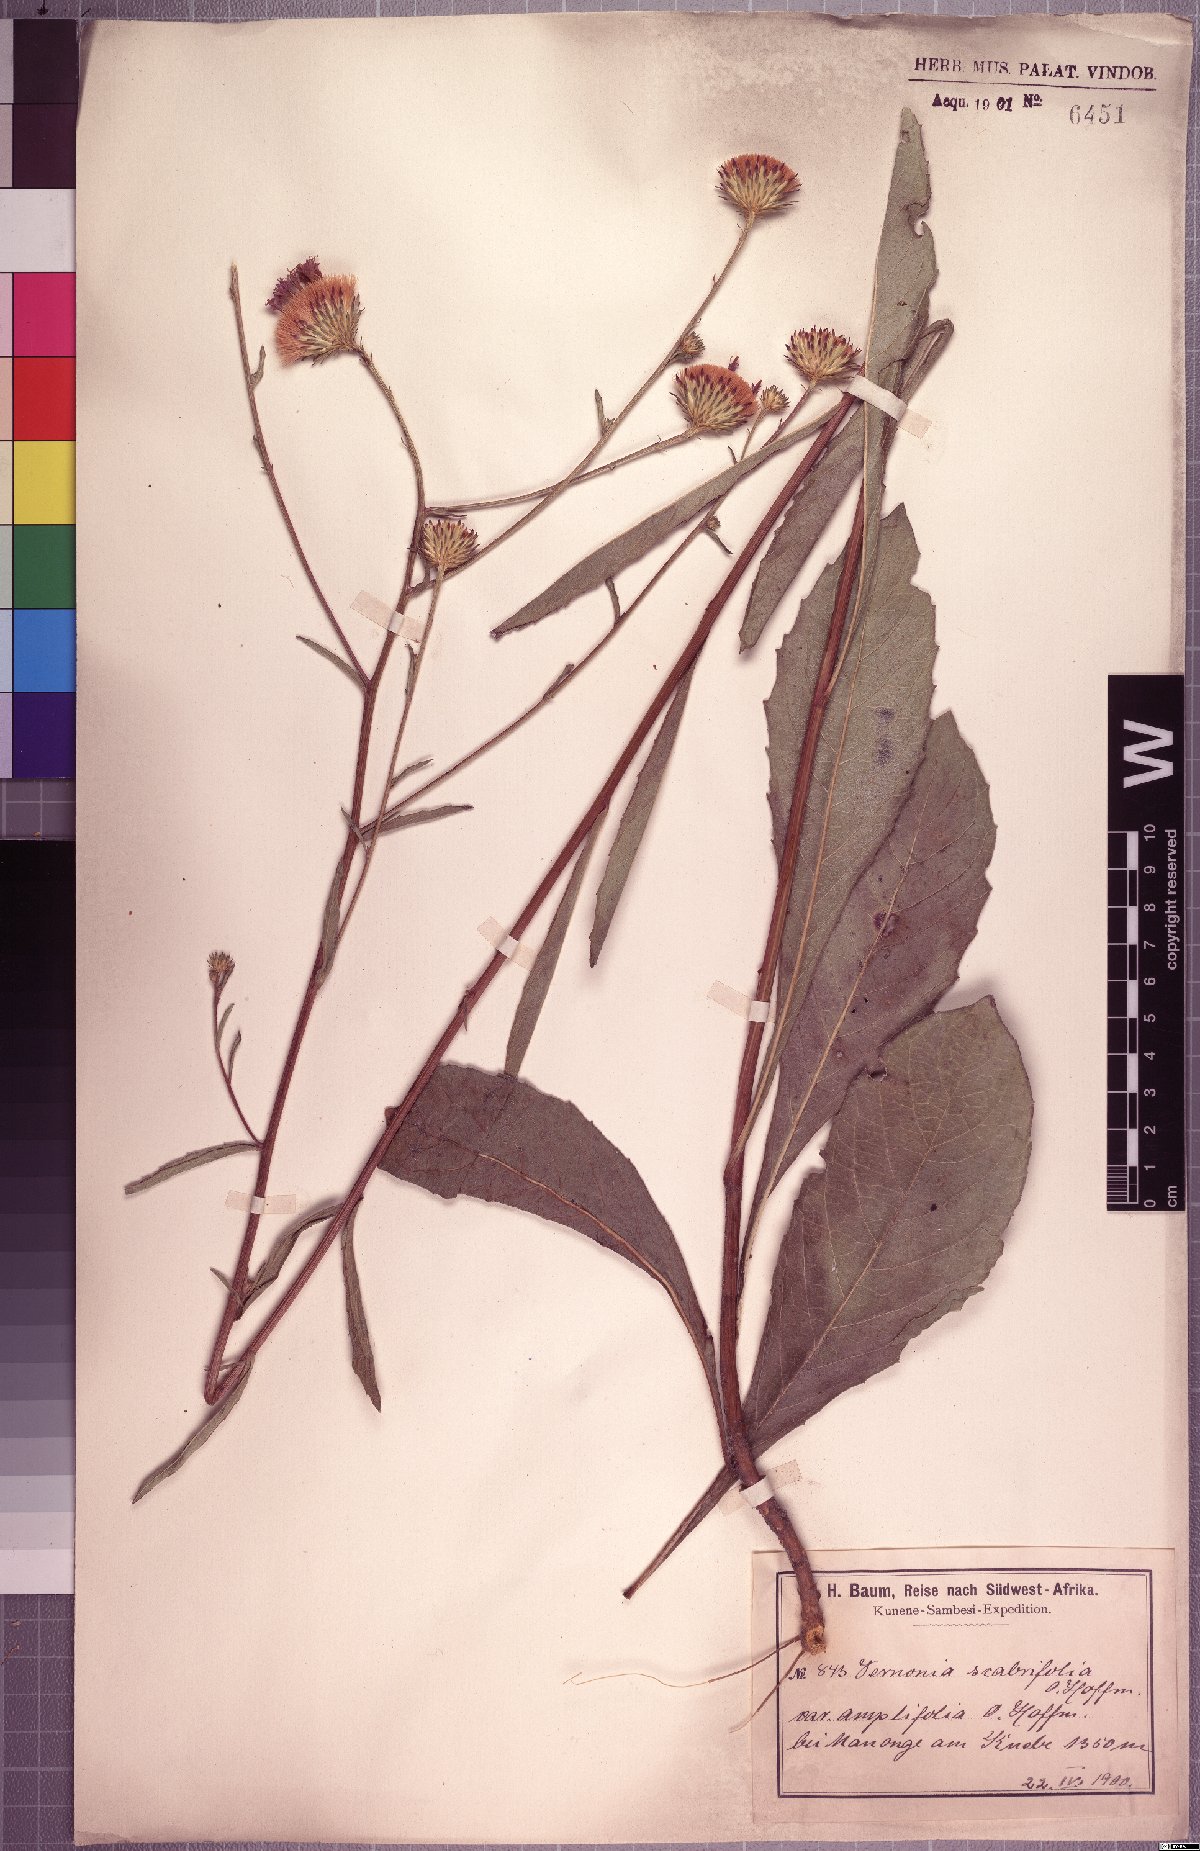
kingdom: Plantae
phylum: Tracheophyta
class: Magnoliopsida
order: Asterales
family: Asteraceae
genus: Linzia
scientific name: Linzia melleri
